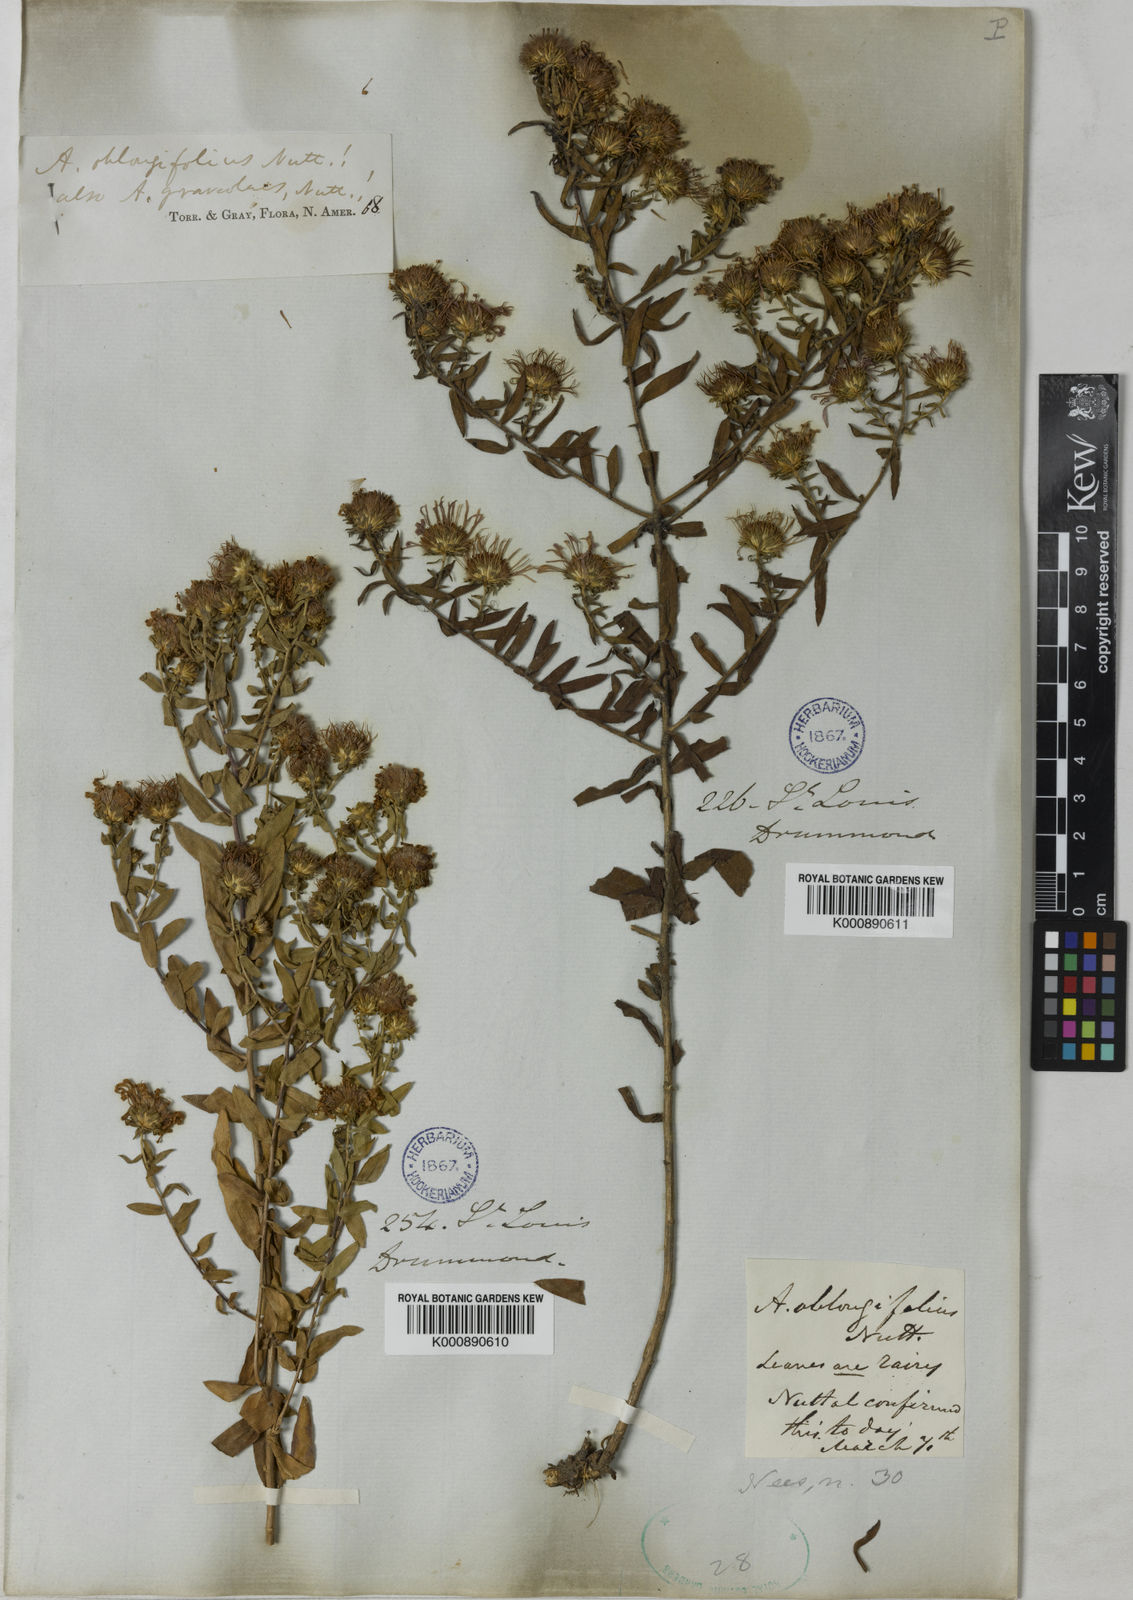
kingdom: Plantae
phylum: Tracheophyta
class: Magnoliopsida
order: Asterales
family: Asteraceae
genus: Symphyotrichum
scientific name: Symphyotrichum oblongifolium
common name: Aromatic aster
